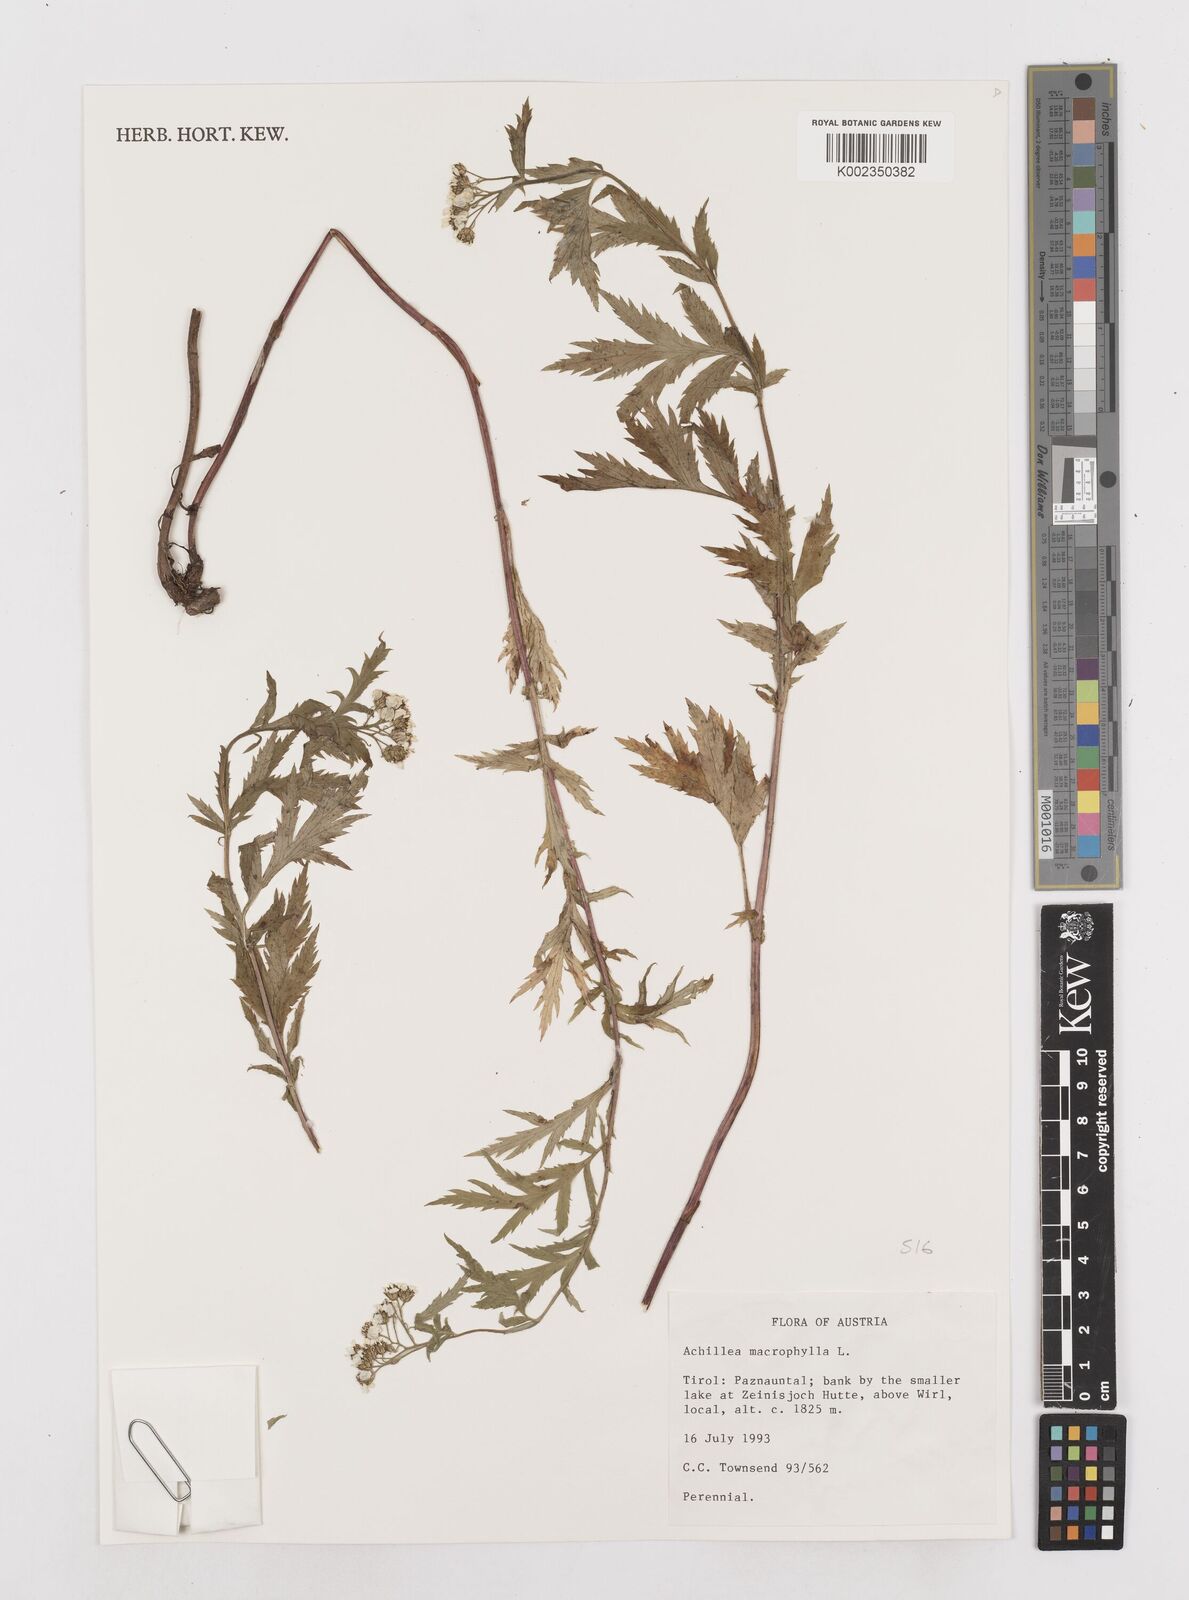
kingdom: Plantae
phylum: Tracheophyta
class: Magnoliopsida
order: Asterales
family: Asteraceae
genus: Achillea
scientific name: Achillea macrophylla
